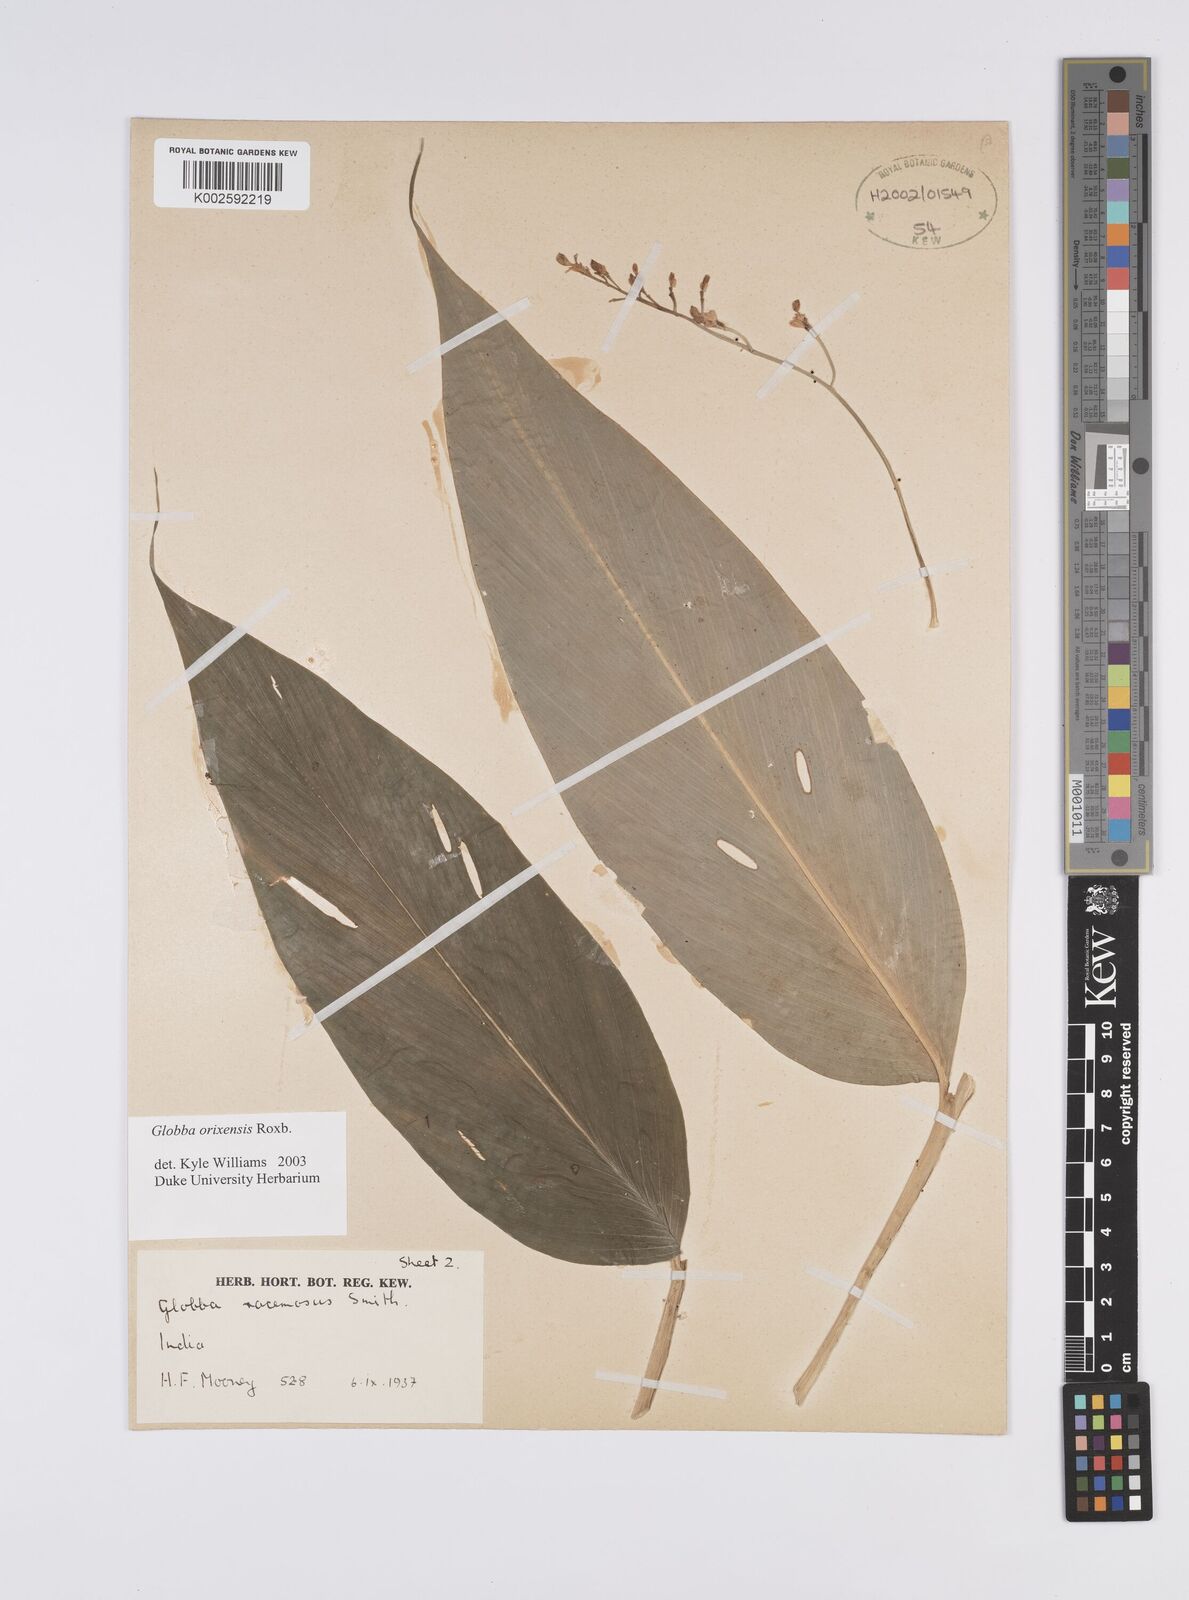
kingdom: Plantae
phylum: Tracheophyta
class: Liliopsida
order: Zingiberales
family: Zingiberaceae
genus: Globba
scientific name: Globba orixensis
